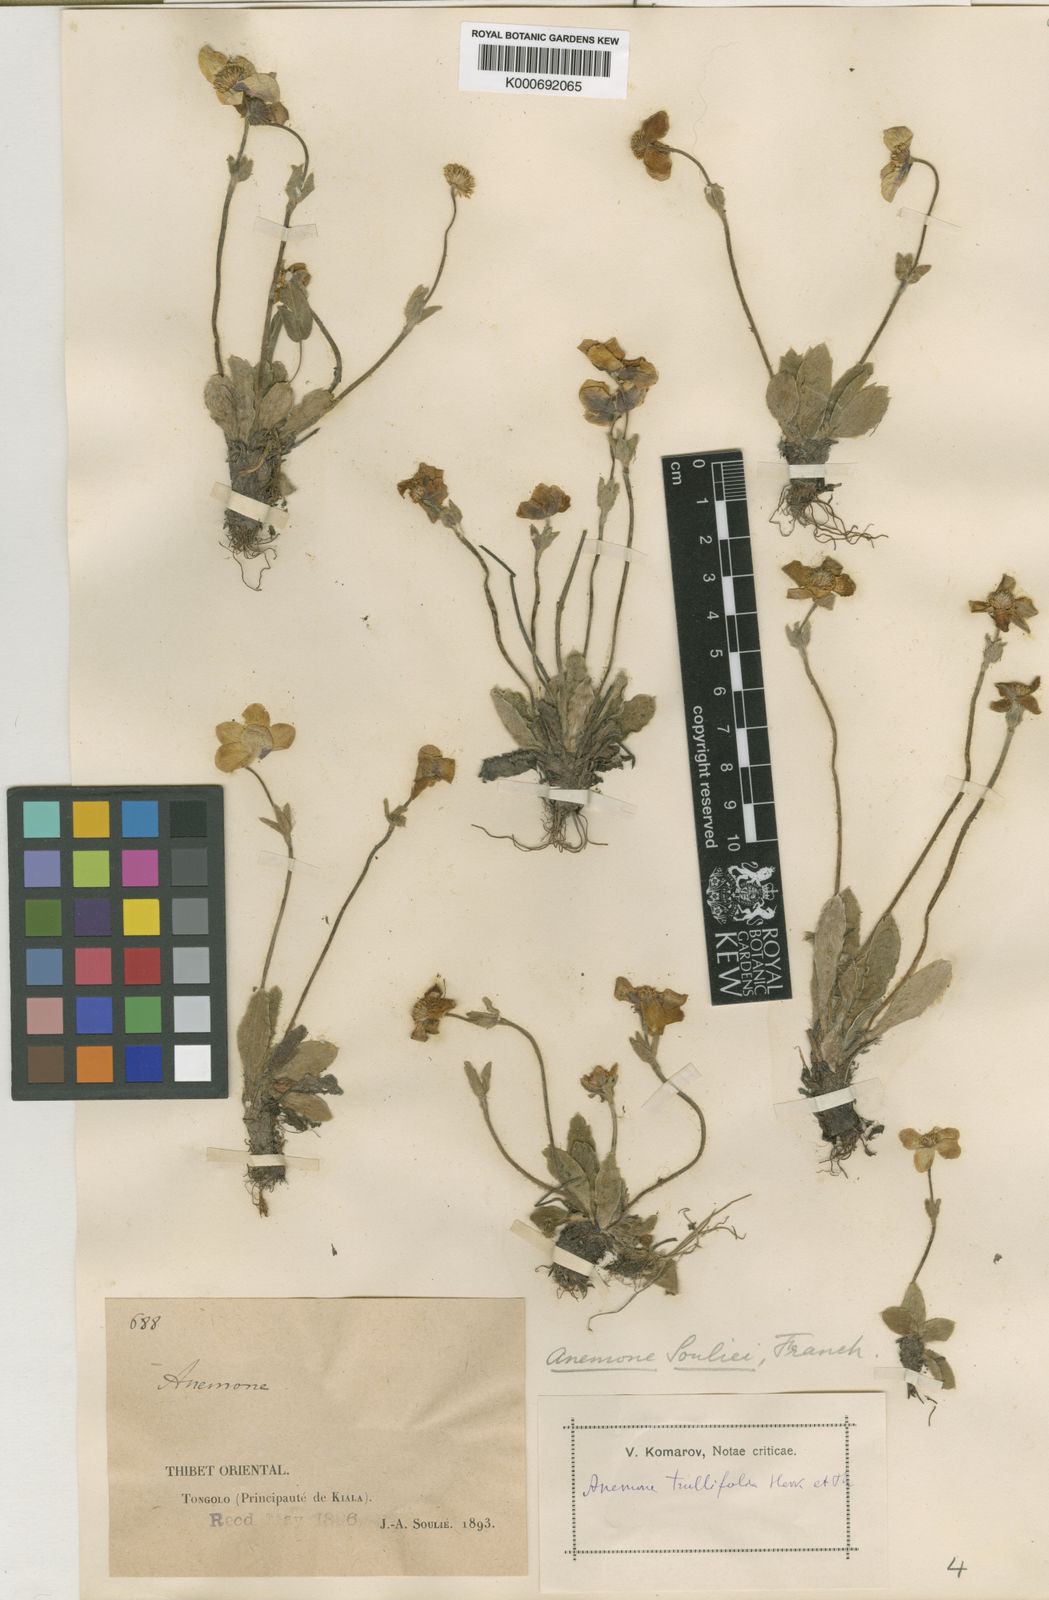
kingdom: Plantae
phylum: Tracheophyta
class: Magnoliopsida
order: Ranunculales
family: Ranunculaceae
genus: Anemonastrum
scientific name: Anemonastrum trullifolium
